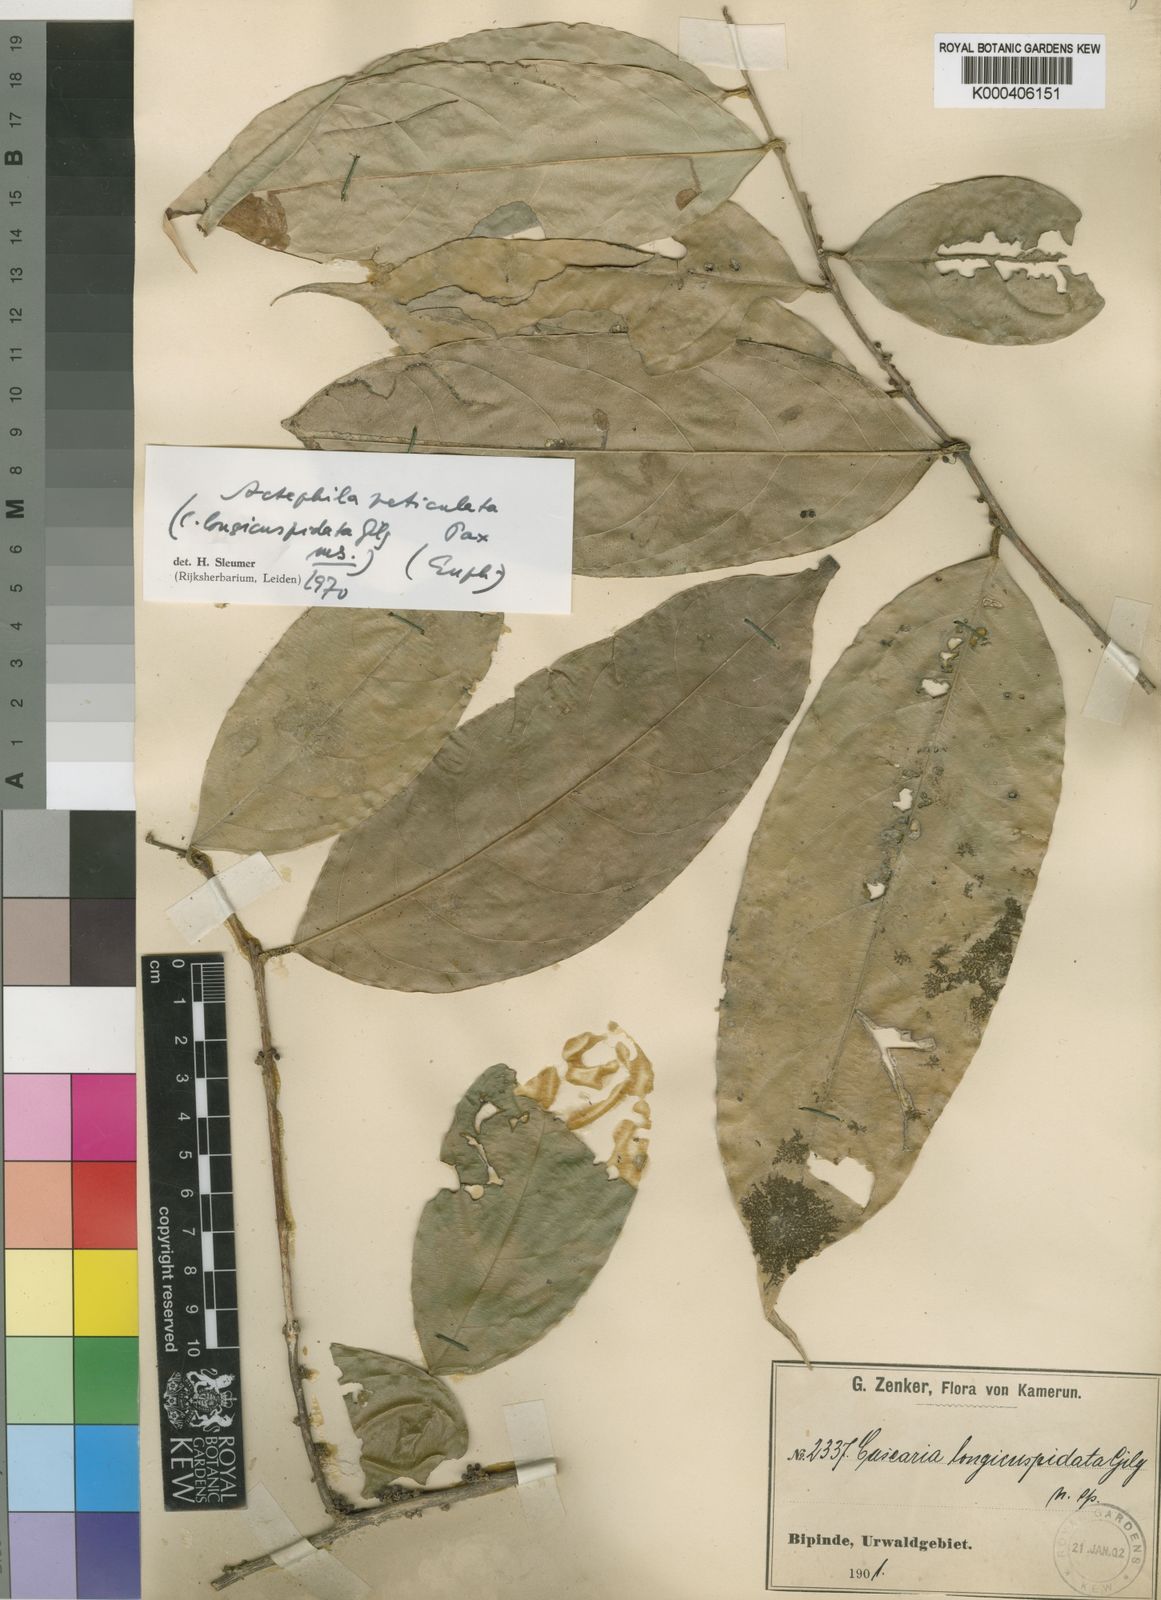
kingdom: Plantae
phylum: Tracheophyta
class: Magnoliopsida
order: Malpighiales
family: Phyllanthaceae
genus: Pentabrachion
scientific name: Pentabrachion
